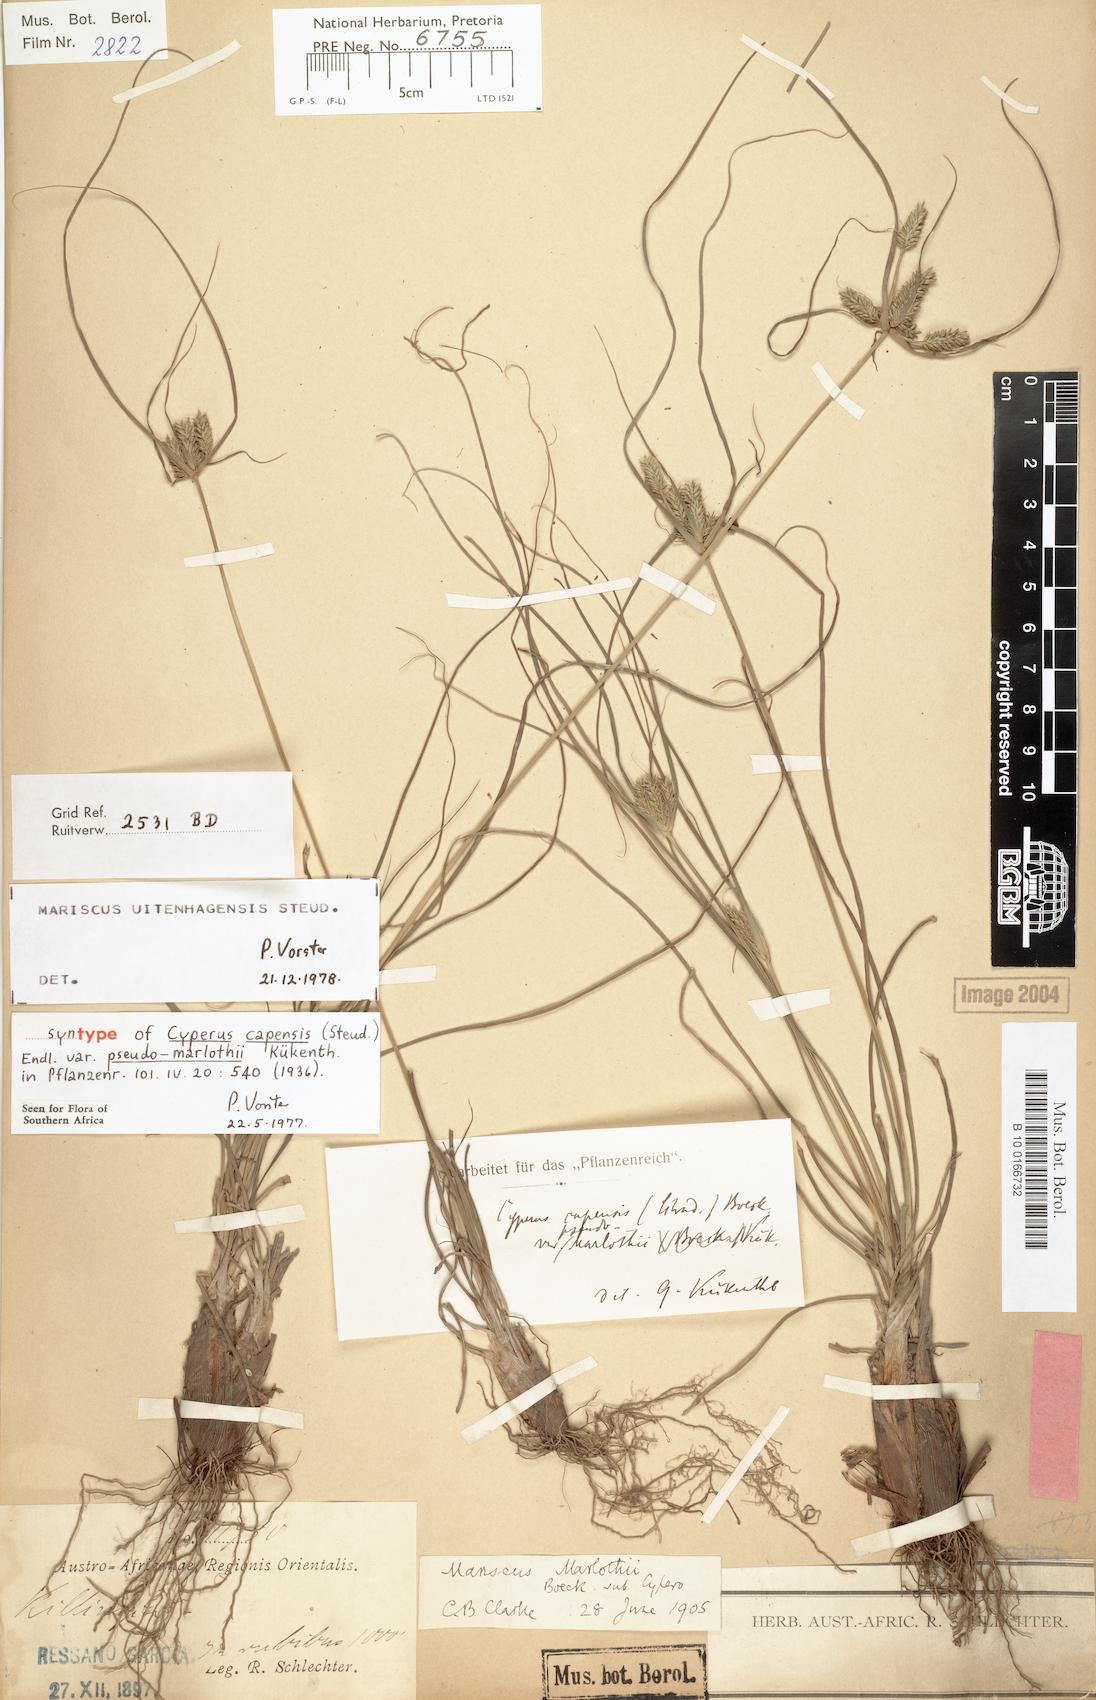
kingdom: Plantae
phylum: Tracheophyta
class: Liliopsida
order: Poales
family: Cyperaceae
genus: Cyperus
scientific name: Cyperus uitenhagensis
